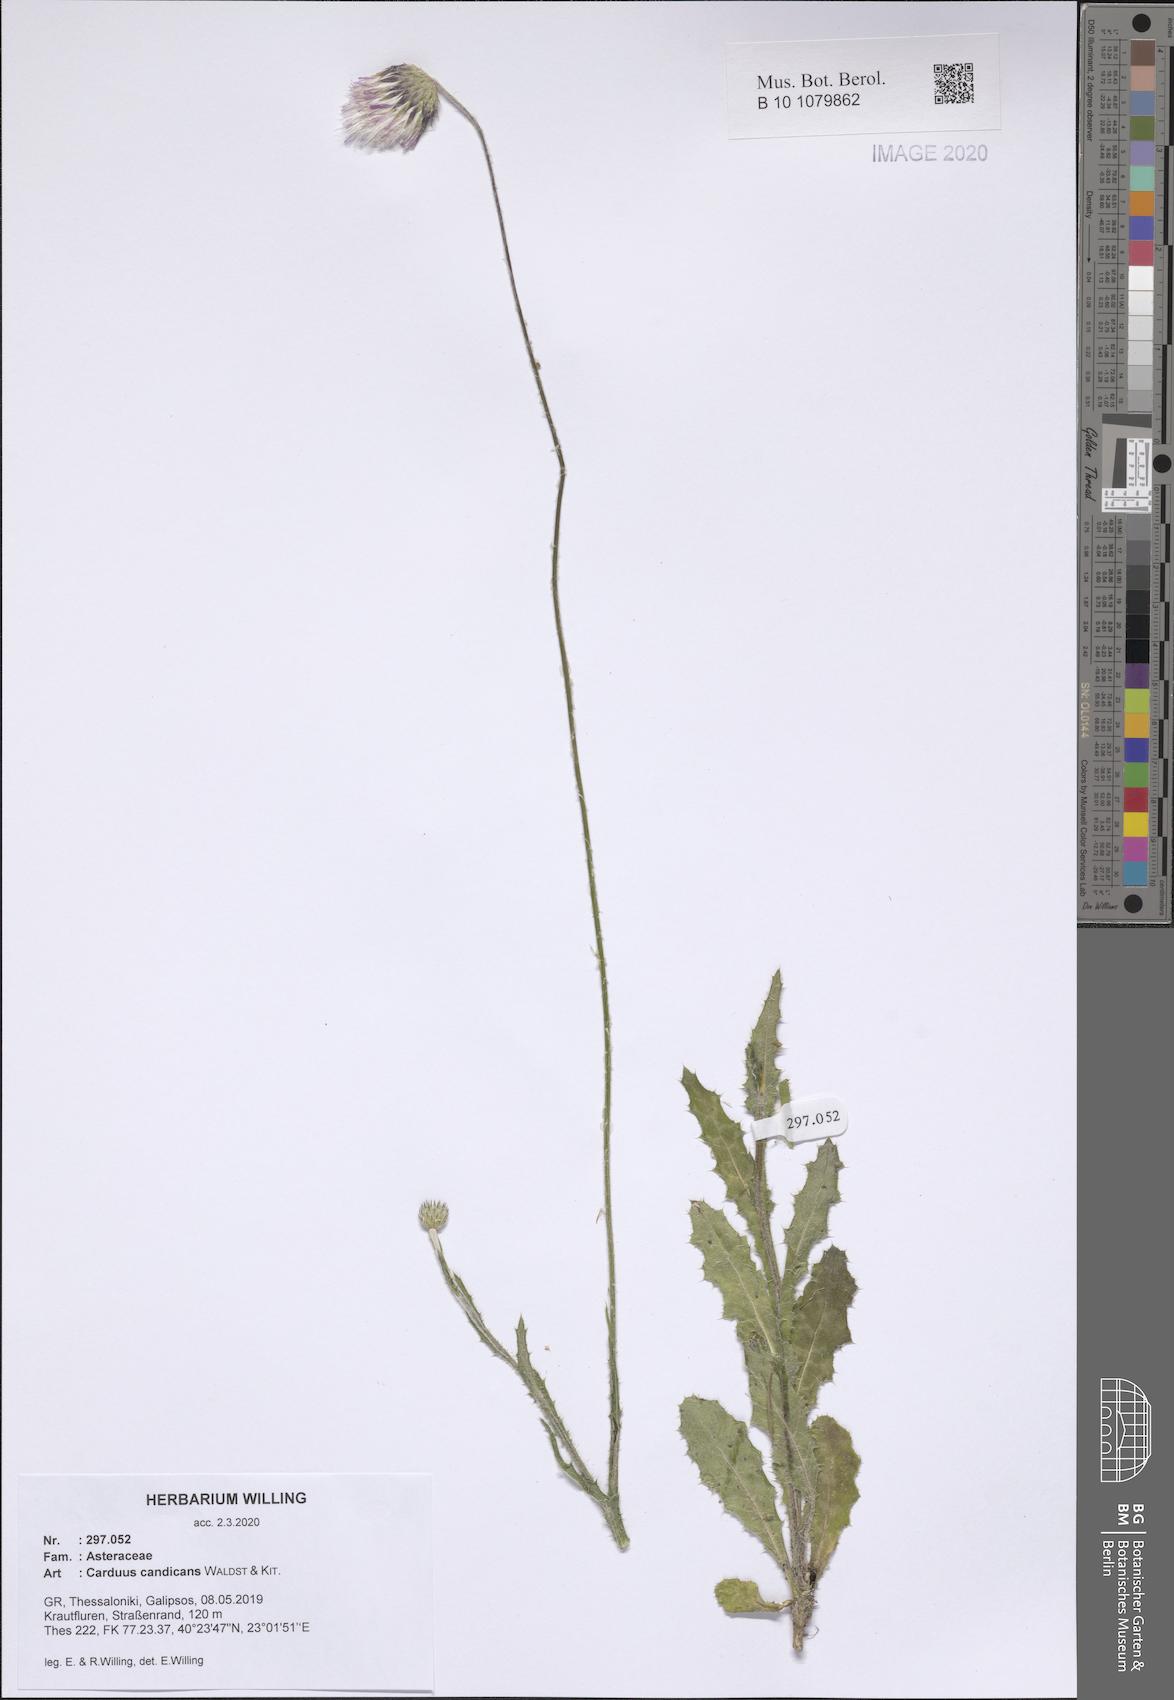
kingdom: Plantae
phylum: Tracheophyta
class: Magnoliopsida
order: Asterales
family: Asteraceae
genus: Carduus
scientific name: Carduus candicans
